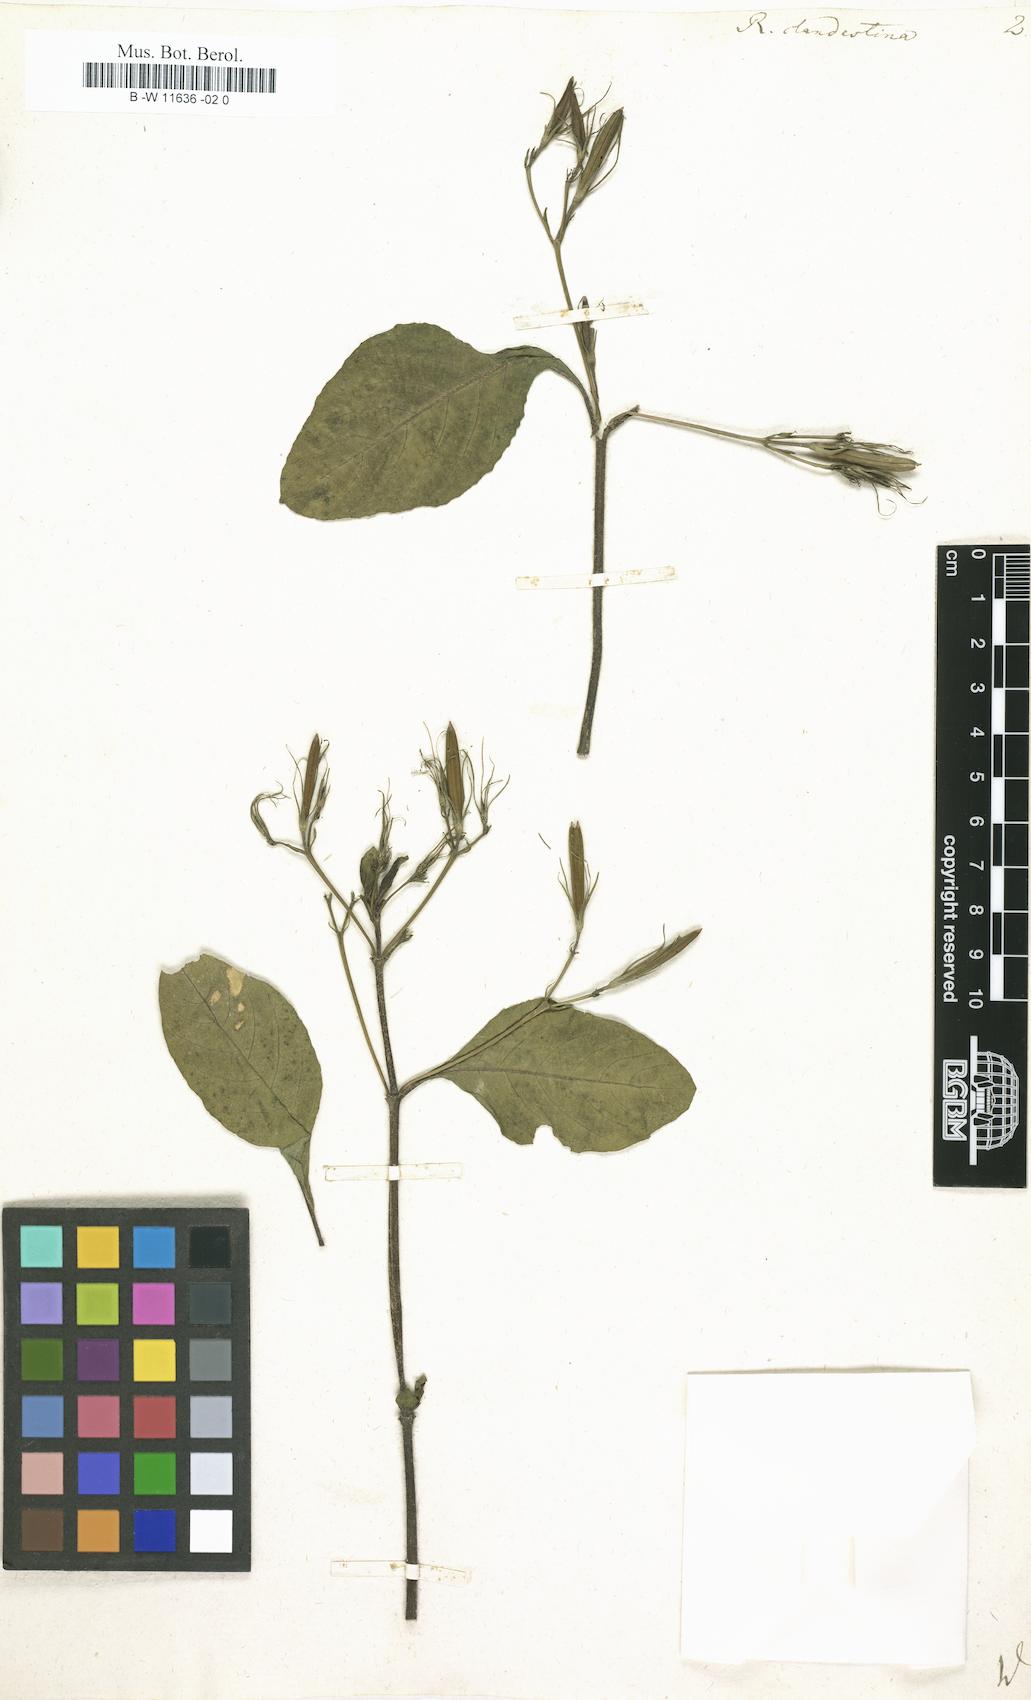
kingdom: Plantae
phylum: Tracheophyta
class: Magnoliopsida
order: Lamiales
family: Acanthaceae
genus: Ruellia
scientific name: Ruellia tuberosa
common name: Devil's bit
